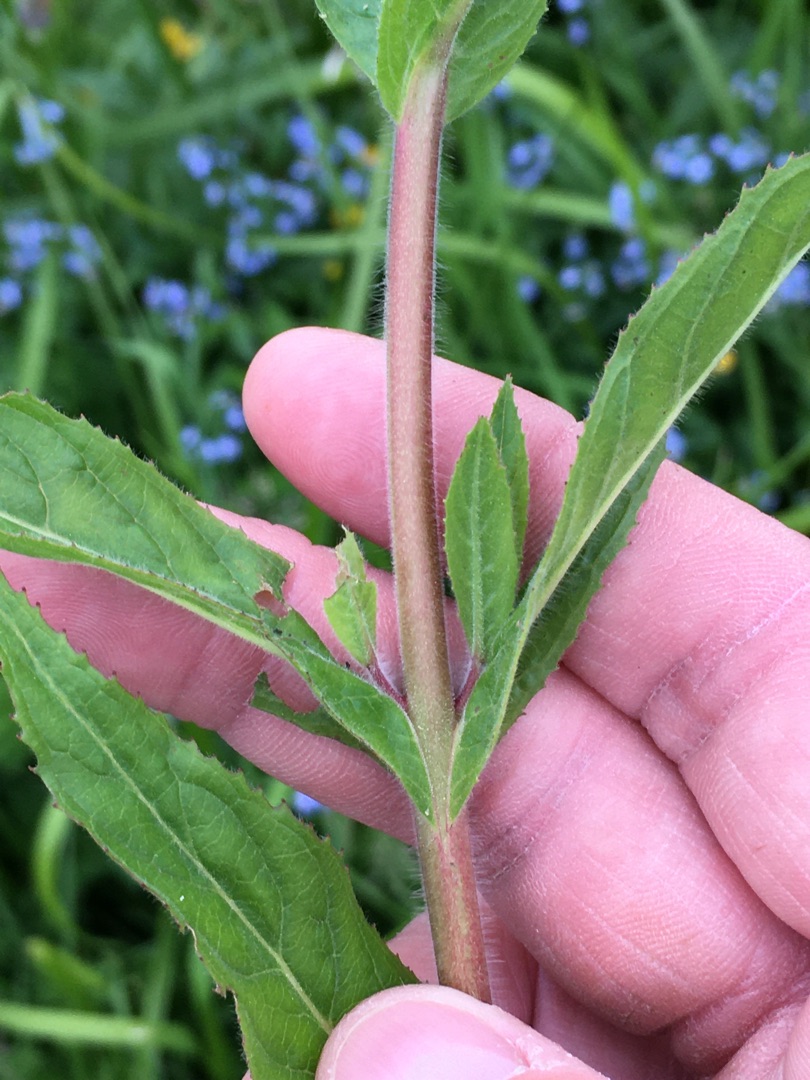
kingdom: Plantae
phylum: Tracheophyta
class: Magnoliopsida
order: Myrtales
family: Onagraceae
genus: Epilobium
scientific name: Epilobium hirsutum
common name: Lådden dueurt
